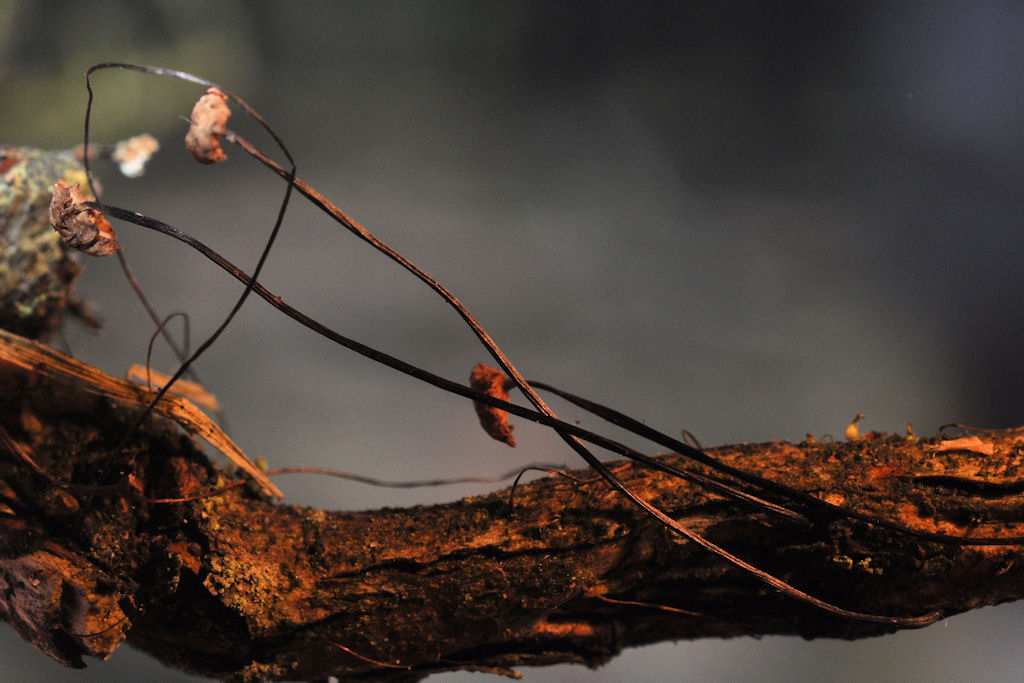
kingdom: Fungi
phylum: Basidiomycota
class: Agaricomycetes
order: Agaricales
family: Omphalotaceae
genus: Gymnopus
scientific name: Gymnopus androsaceus
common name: trådstokket fladhat
